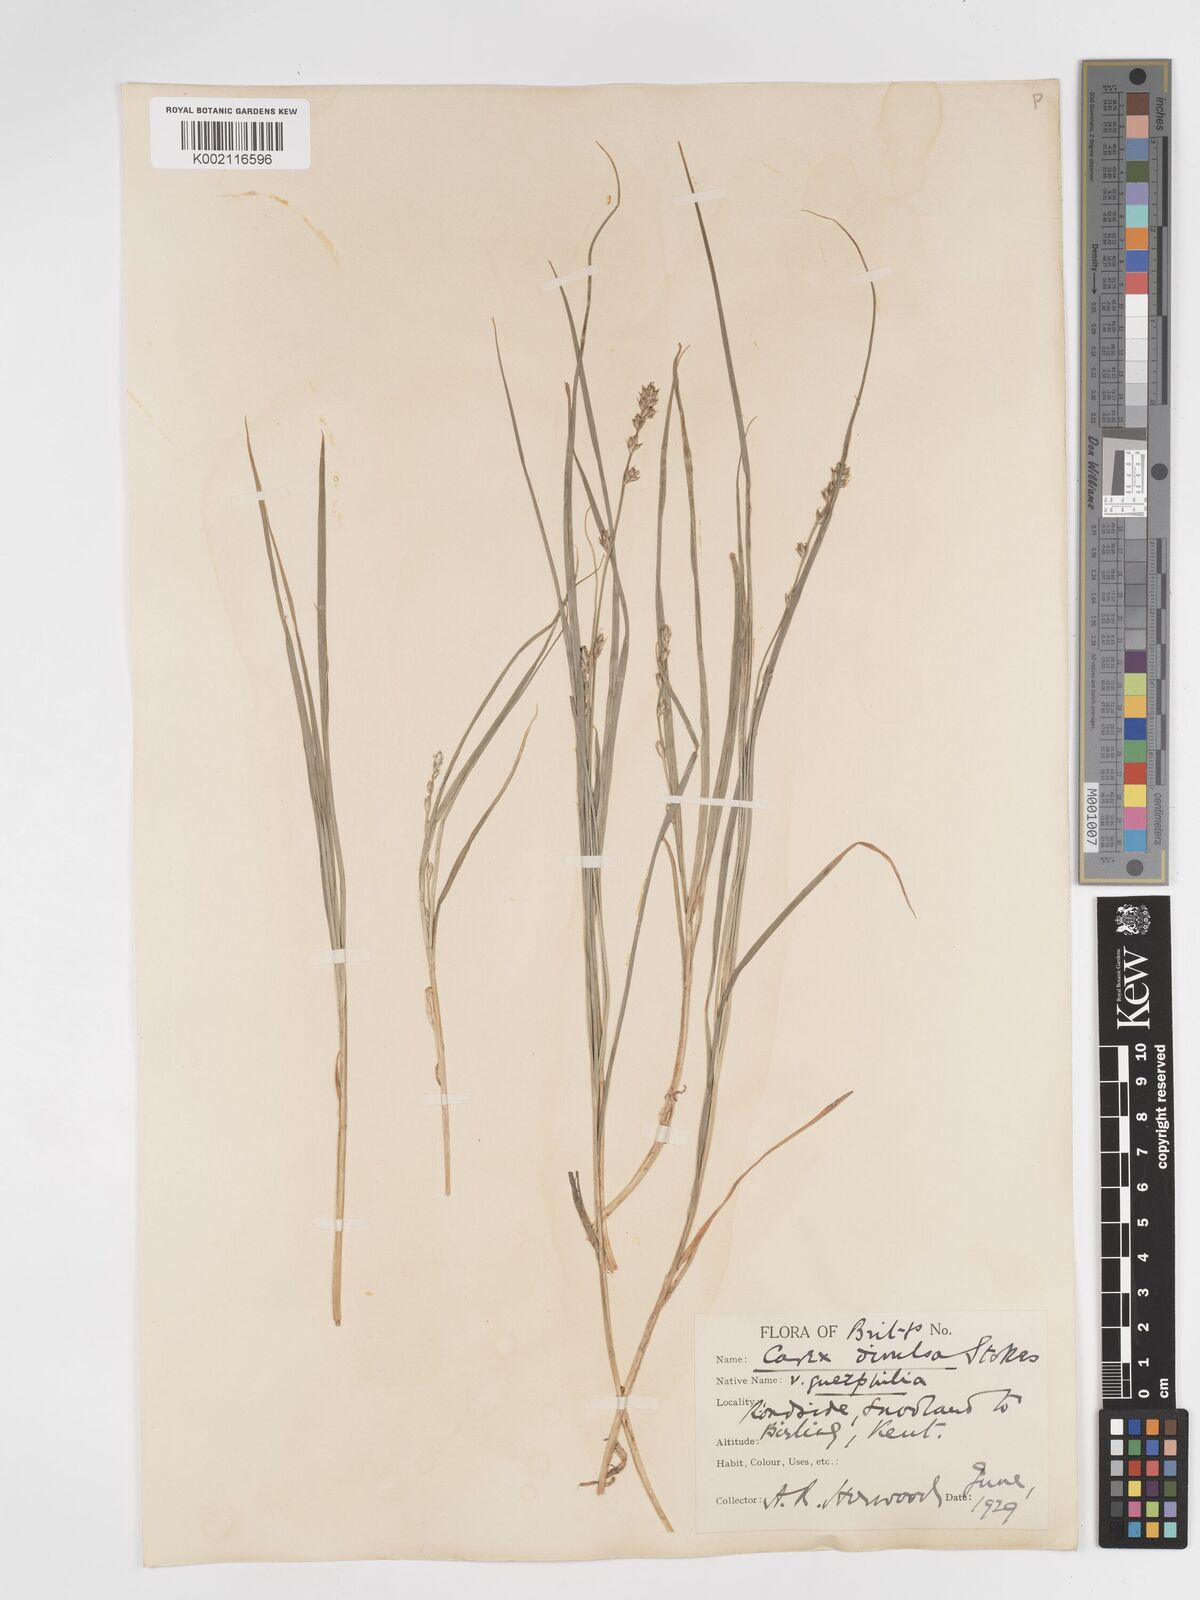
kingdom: Plantae
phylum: Tracheophyta
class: Liliopsida
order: Poales
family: Cyperaceae
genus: Carex
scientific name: Carex divulsa
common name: Grassland sedge
